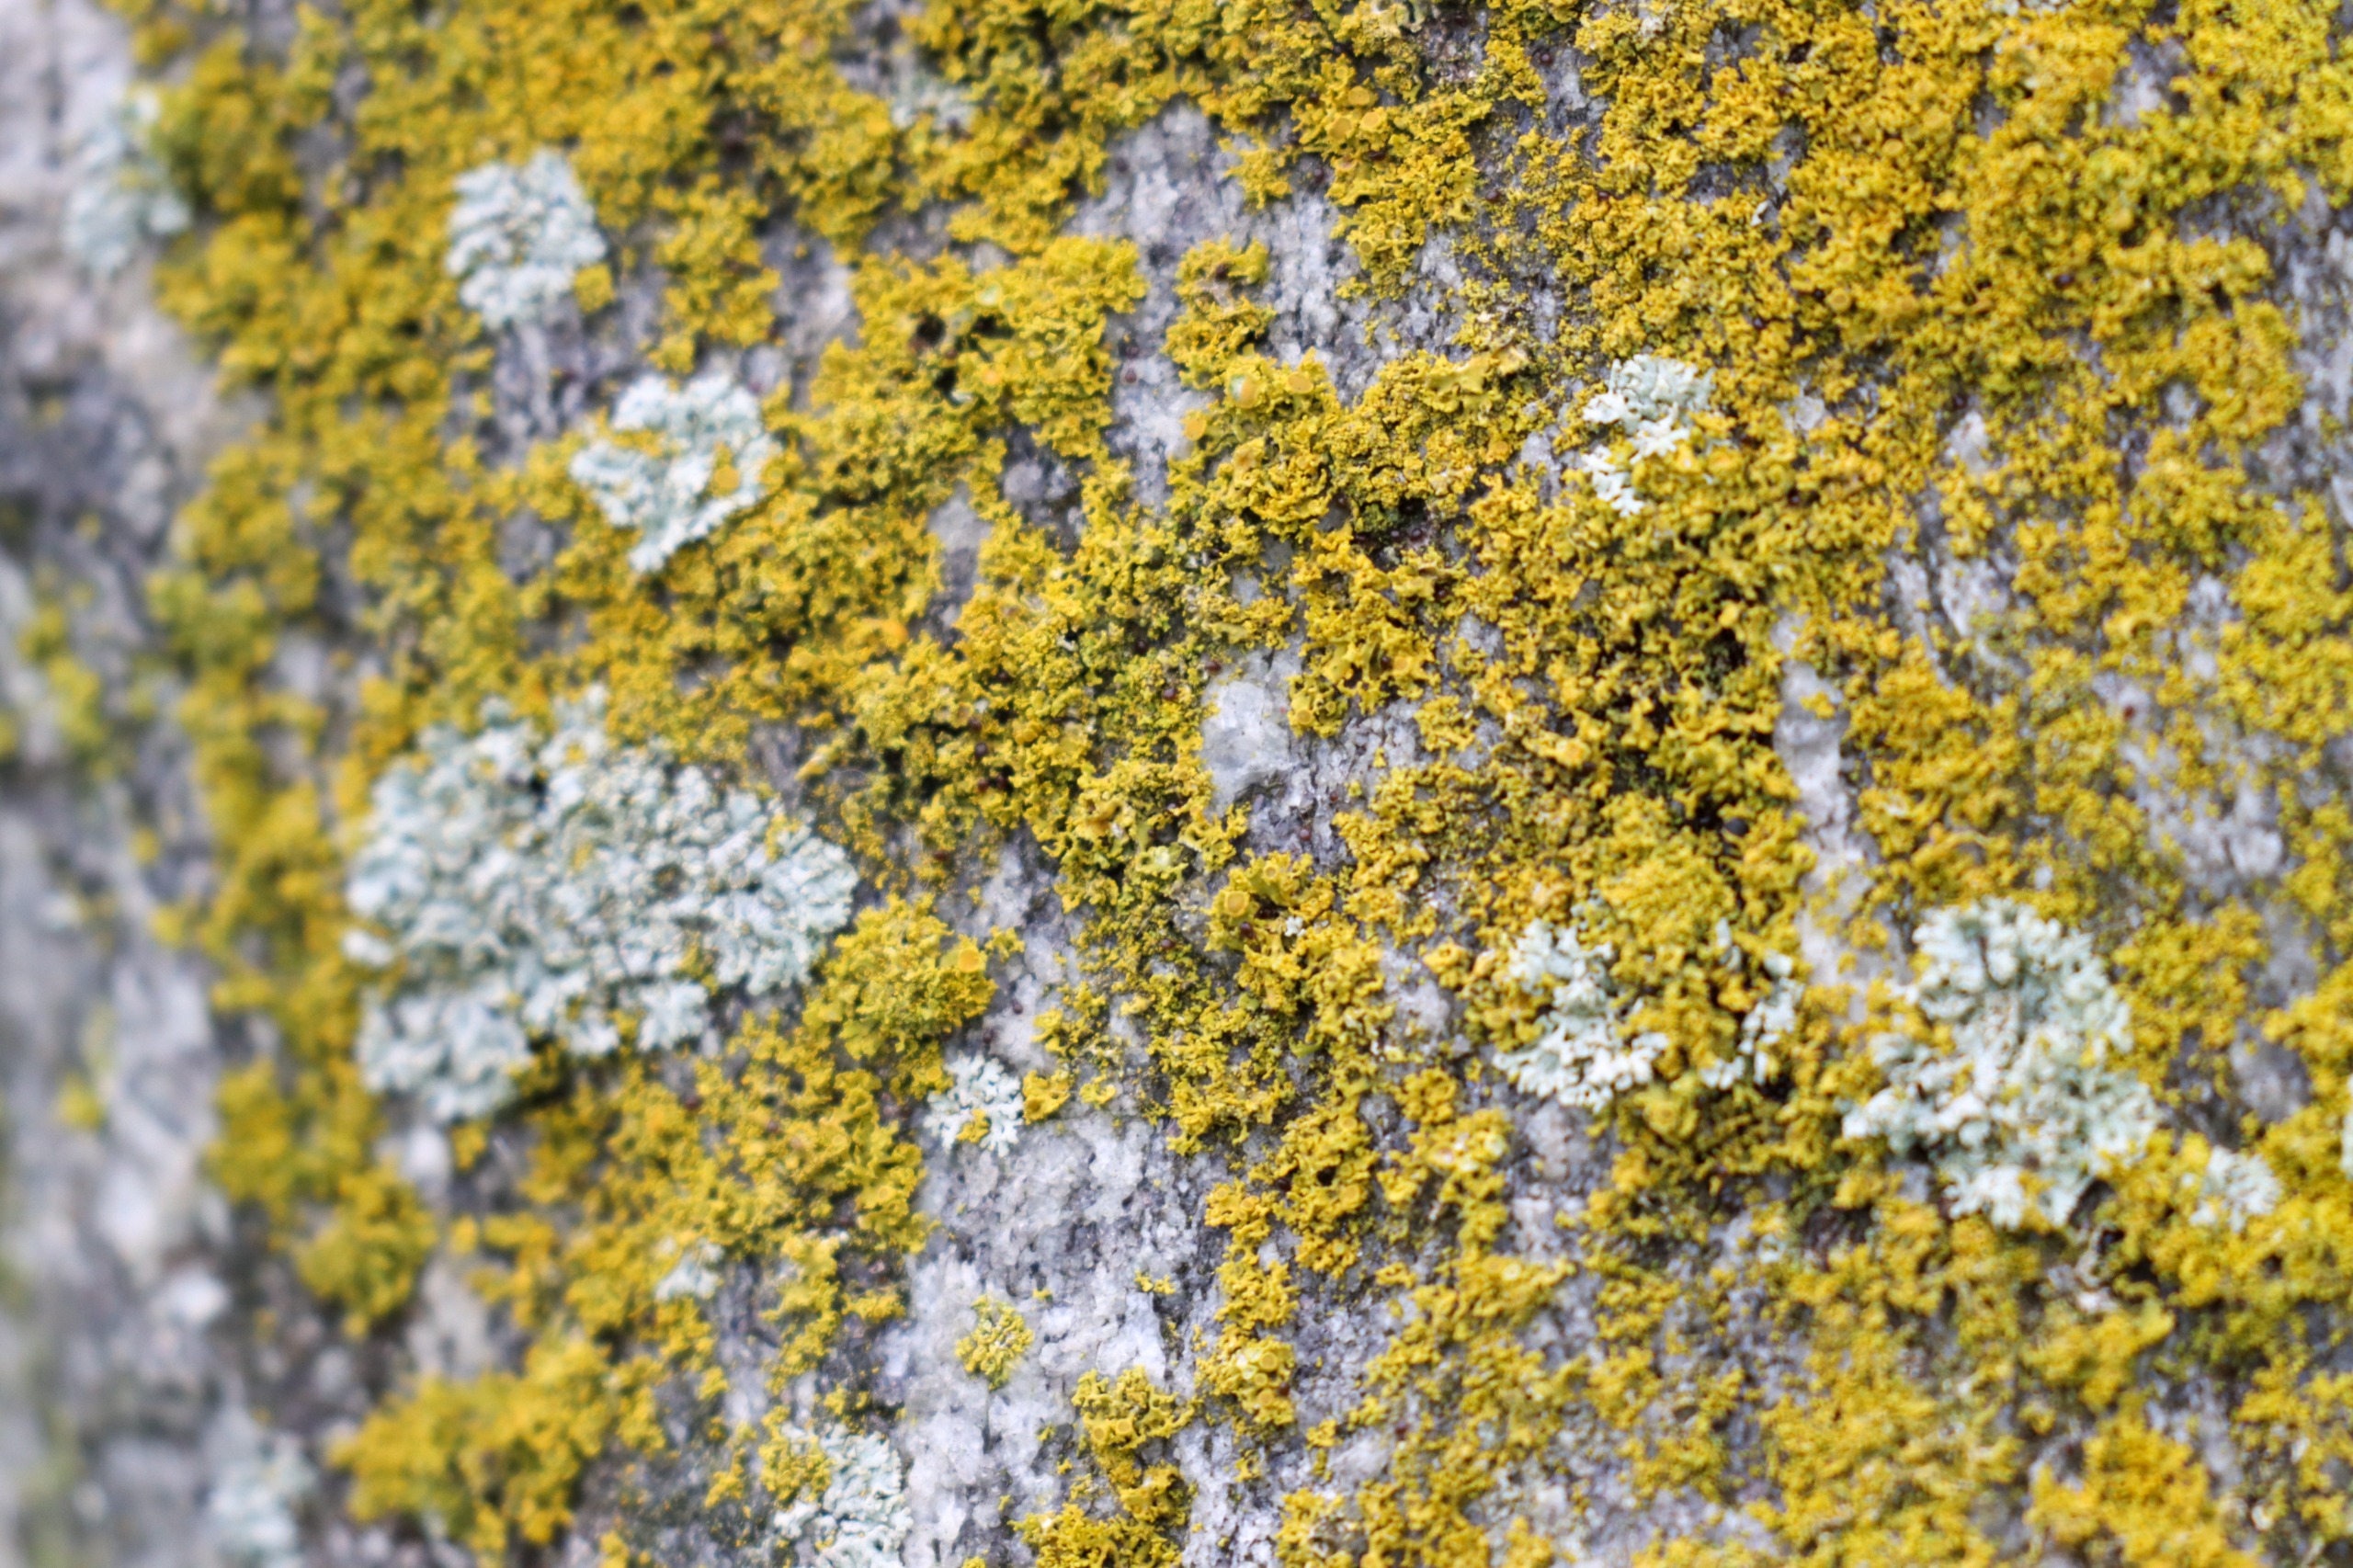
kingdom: Fungi
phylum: Ascomycota
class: Lecanoromycetes
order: Teloschistales
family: Teloschistaceae
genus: Polycauliona
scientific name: Polycauliona candelaria
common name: Tue-orangelav
